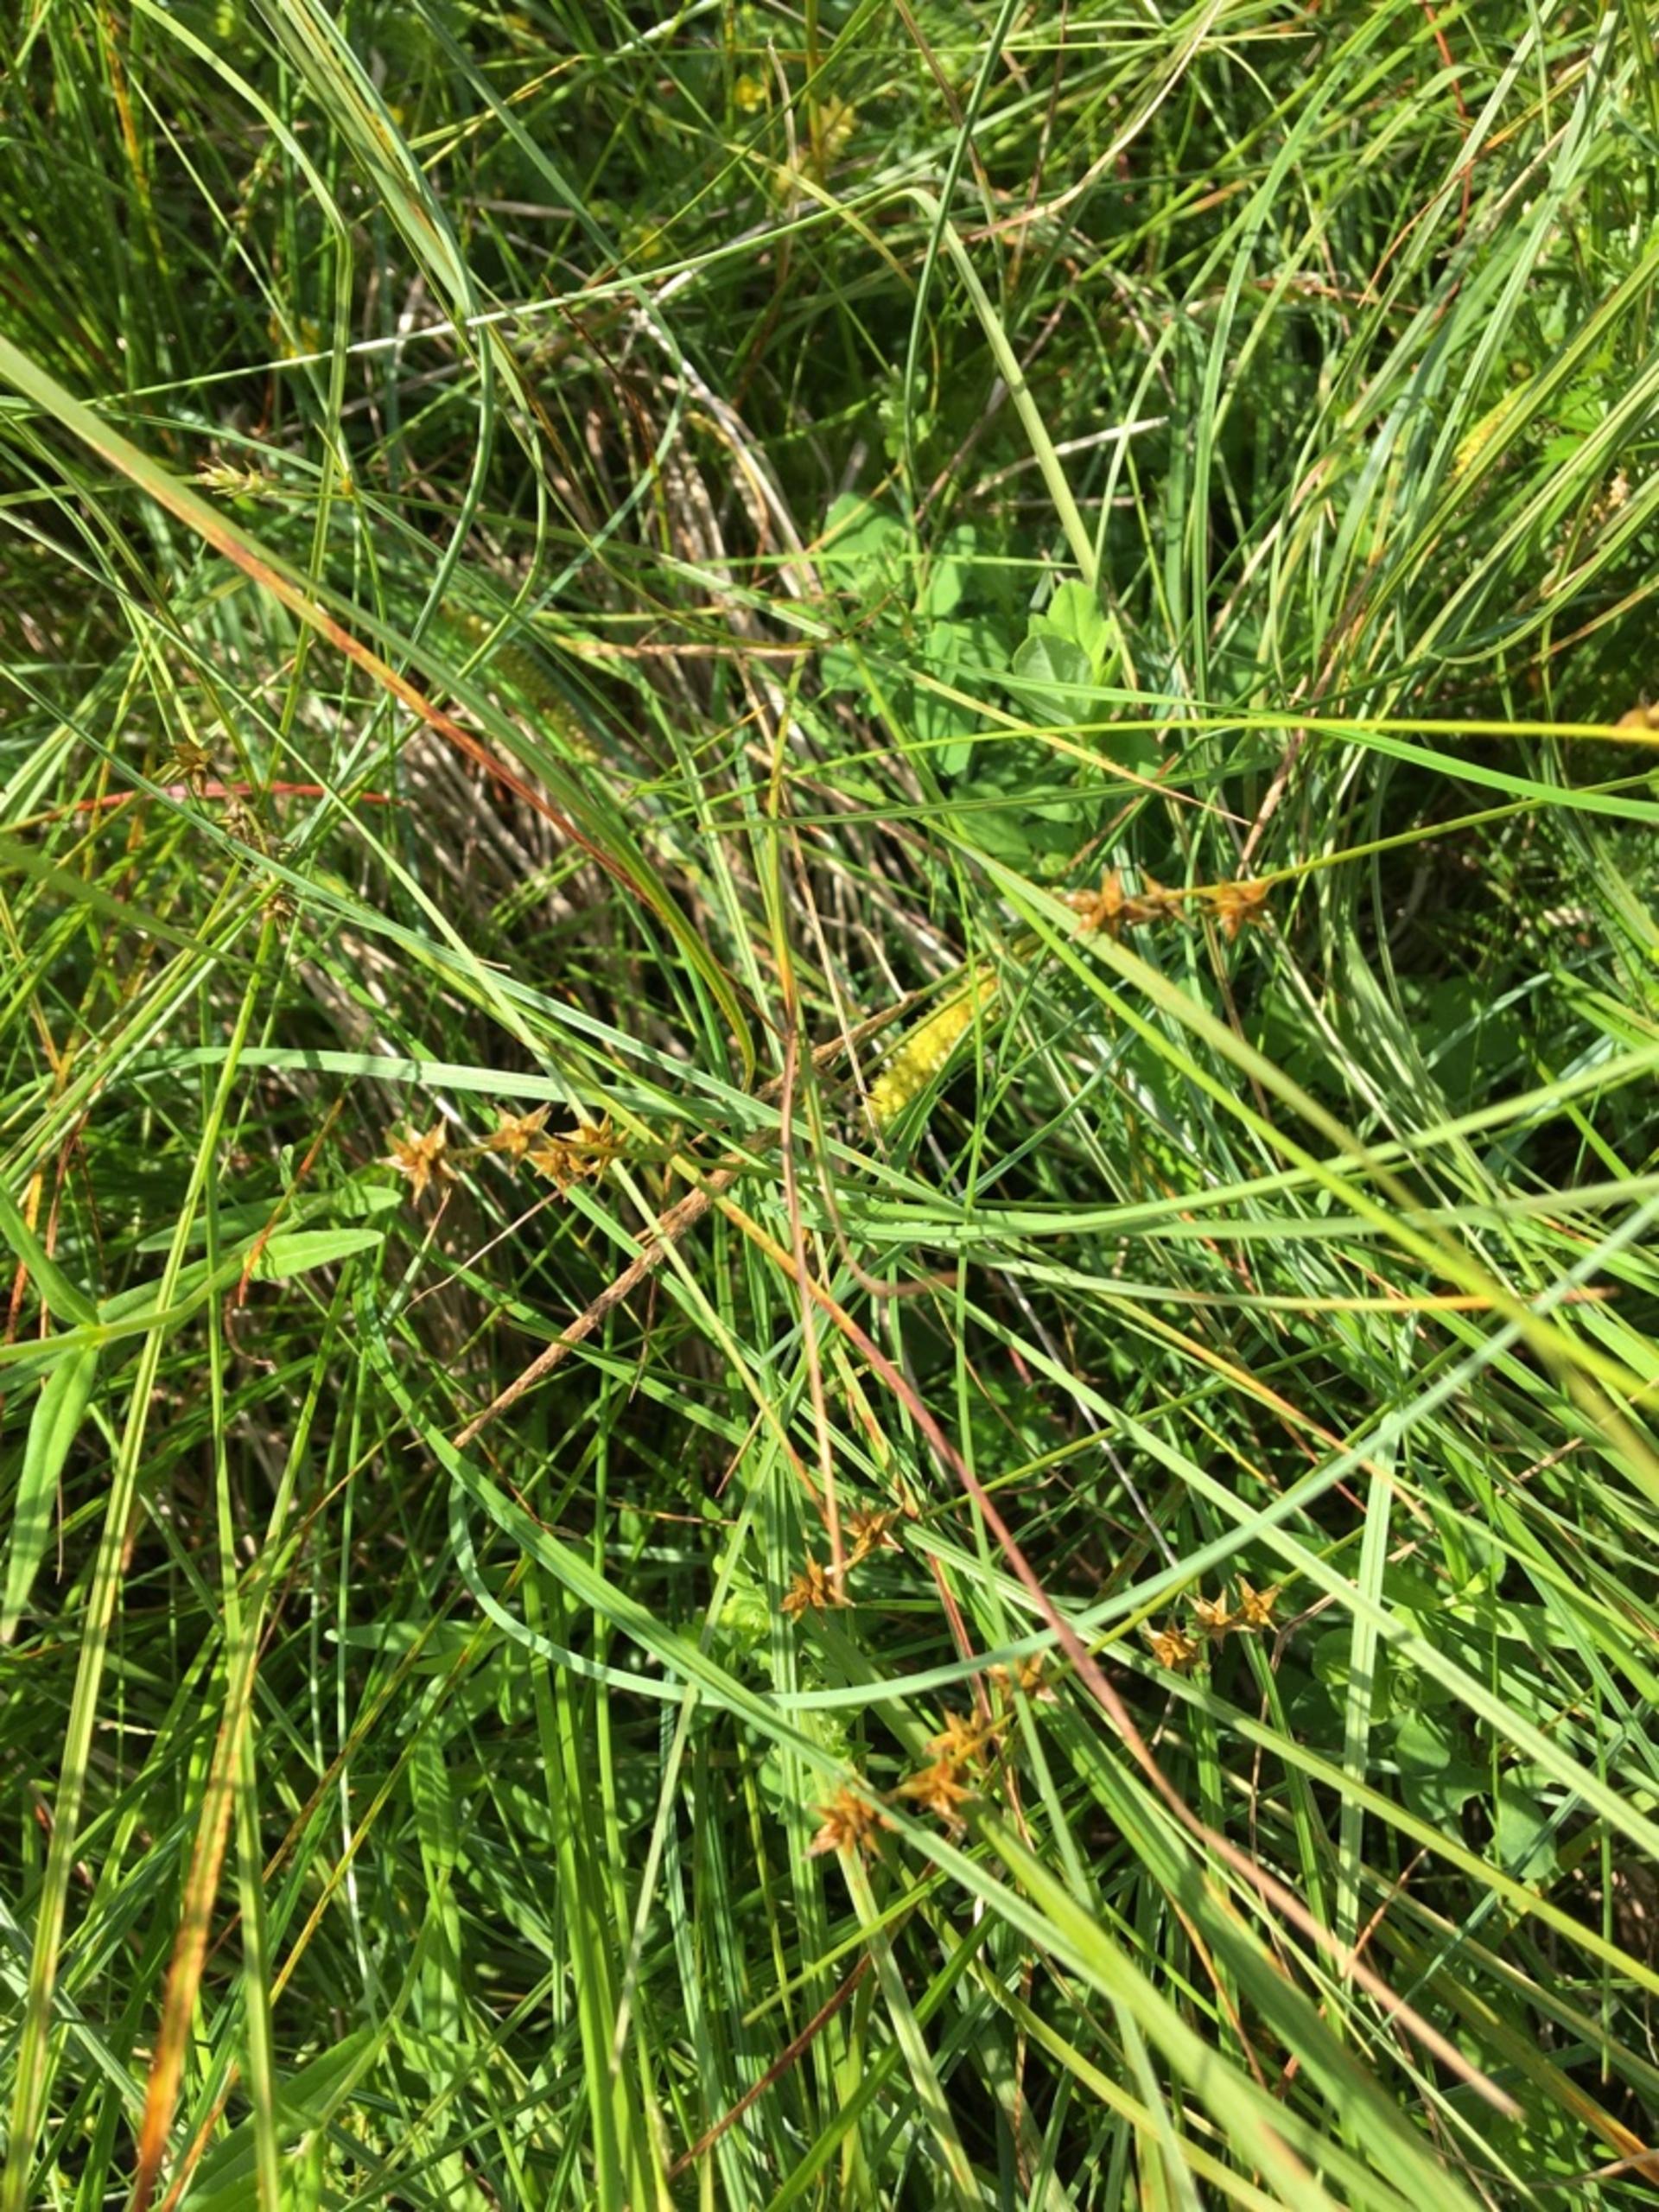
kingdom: Plantae
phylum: Tracheophyta
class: Liliopsida
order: Poales
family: Cyperaceae
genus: Carex
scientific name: Carex echinata
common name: Stjerne-star
